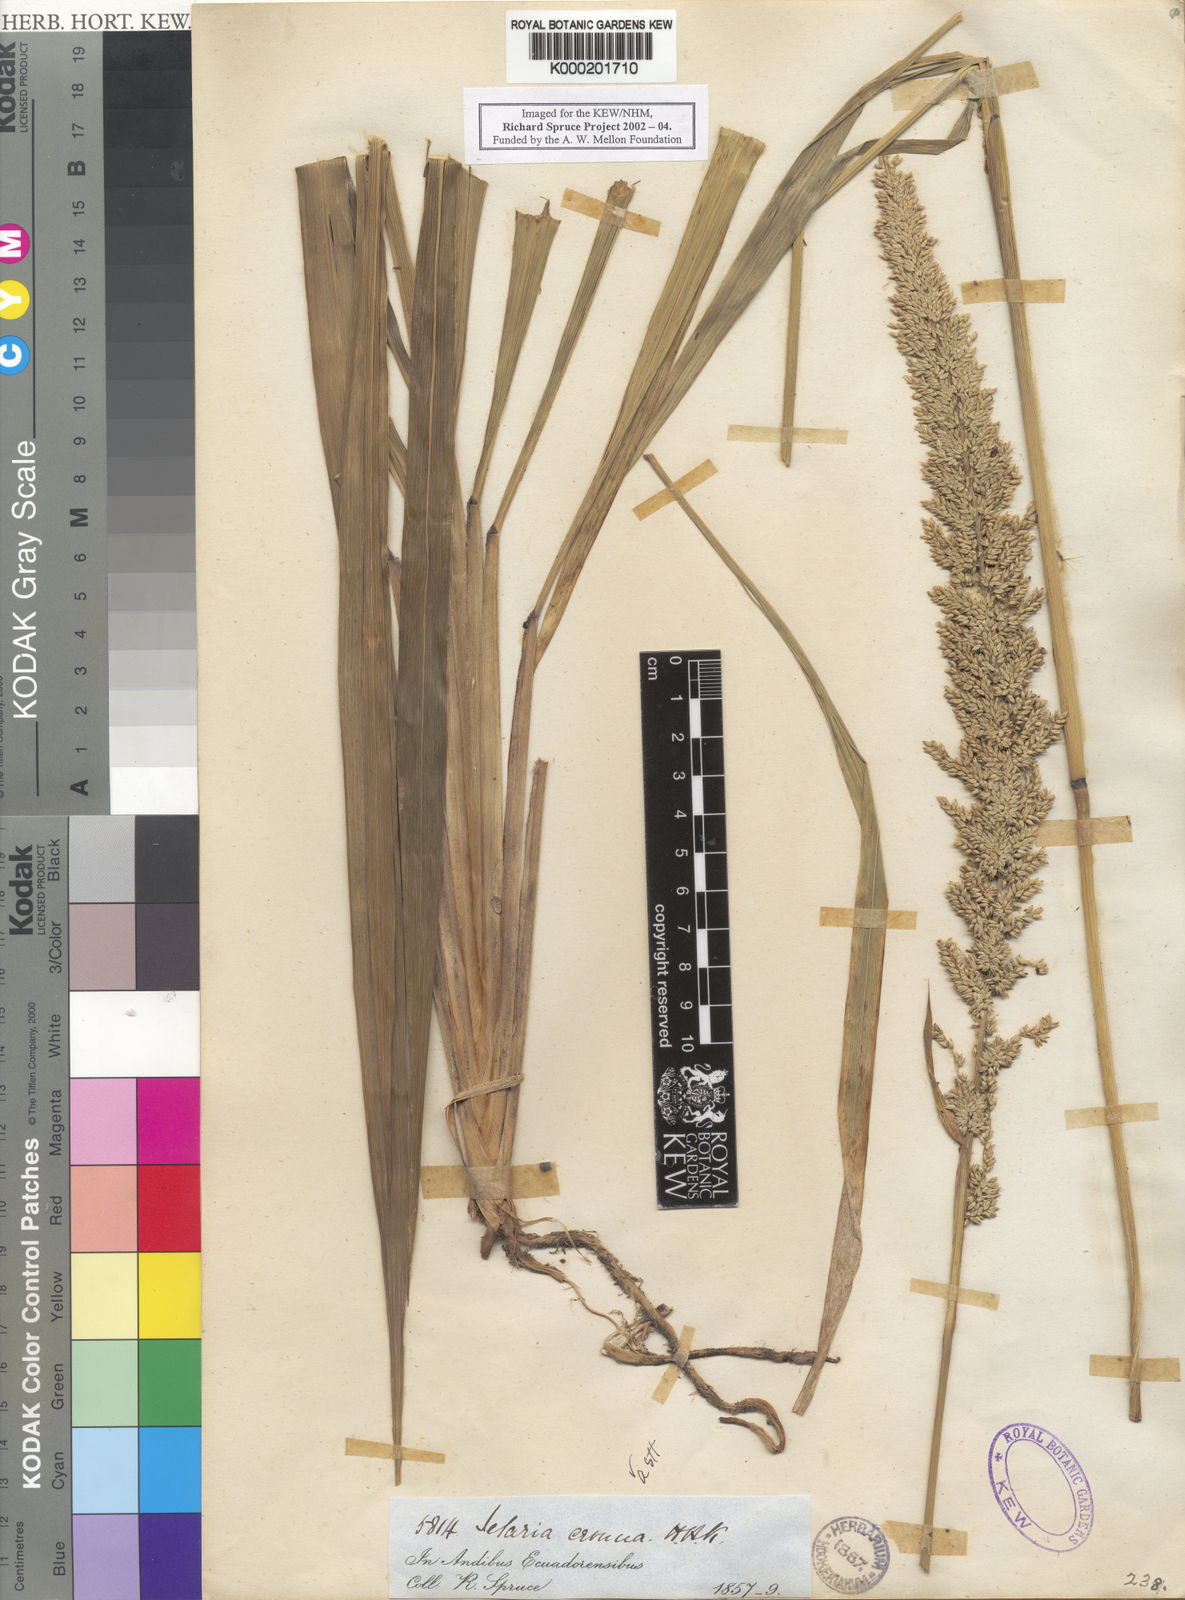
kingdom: Plantae
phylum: Tracheophyta
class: Liliopsida
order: Poales
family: Poaceae
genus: Setaria
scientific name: Setaria cernua
